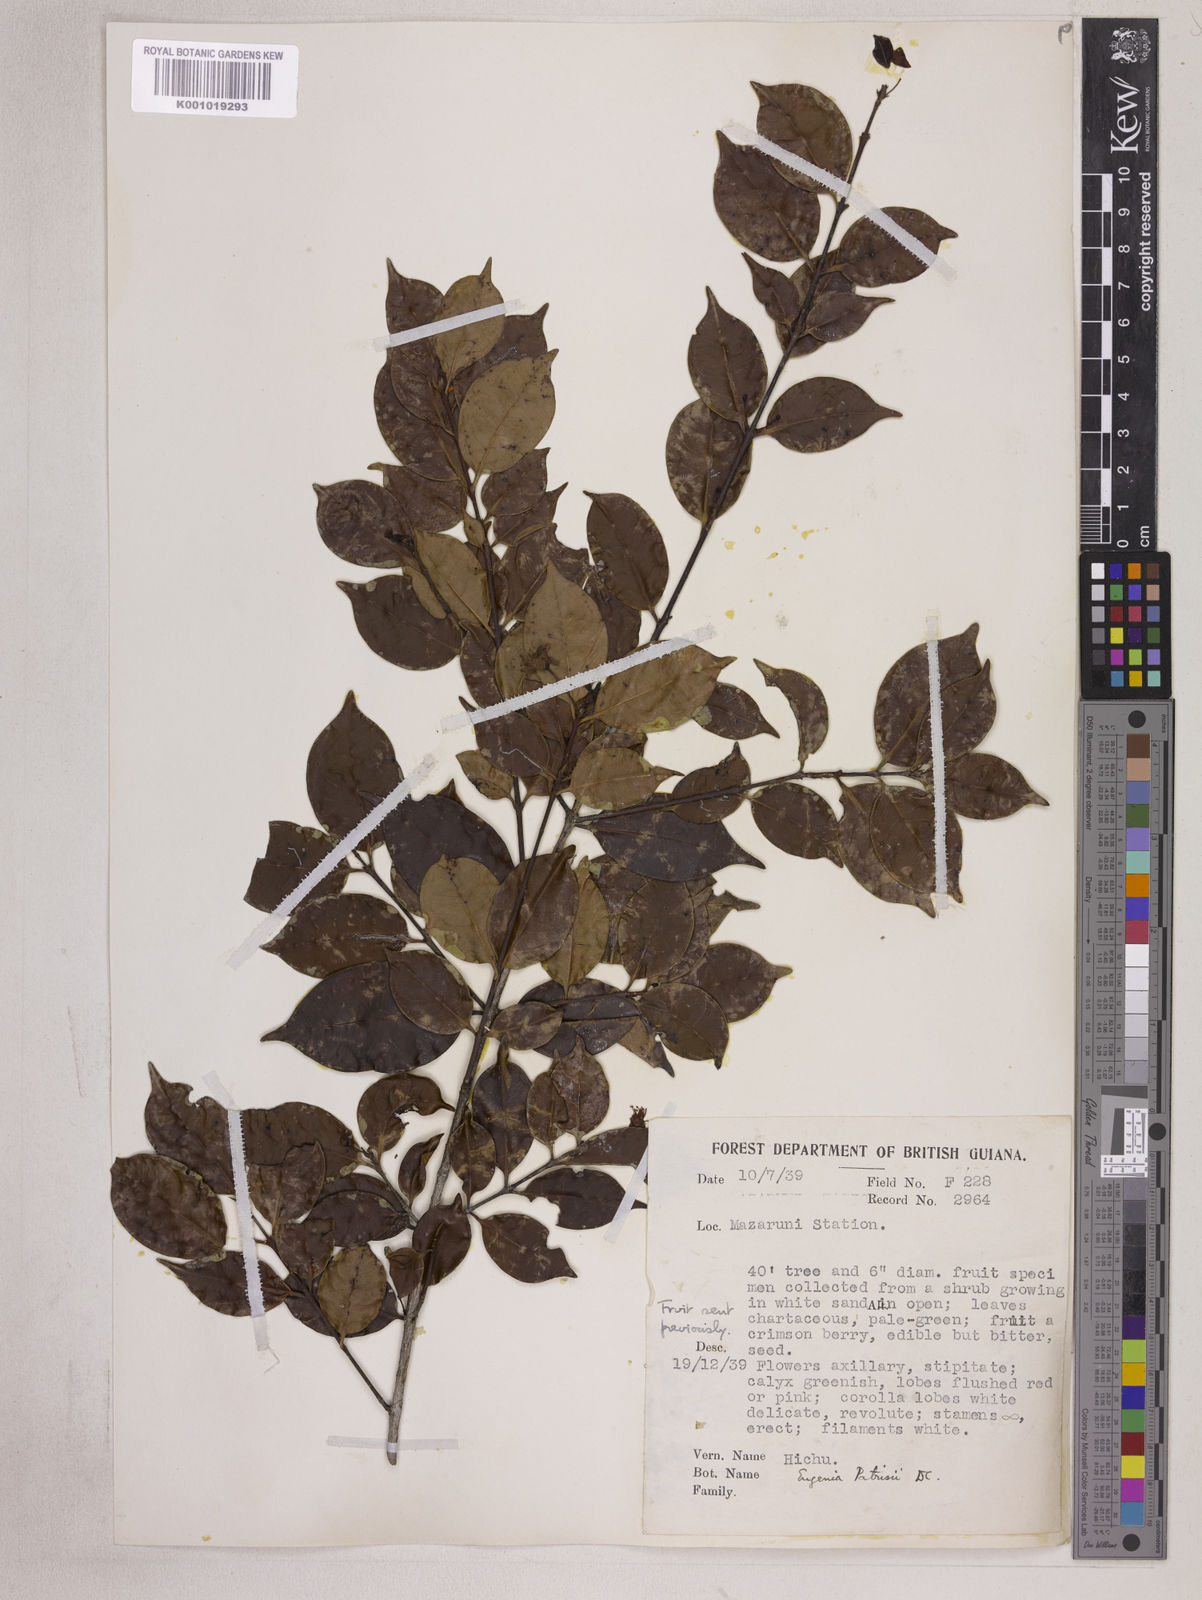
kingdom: Plantae
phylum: Tracheophyta
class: Magnoliopsida
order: Myrtales
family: Myrtaceae
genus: Eugenia
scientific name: Eugenia patrisii
